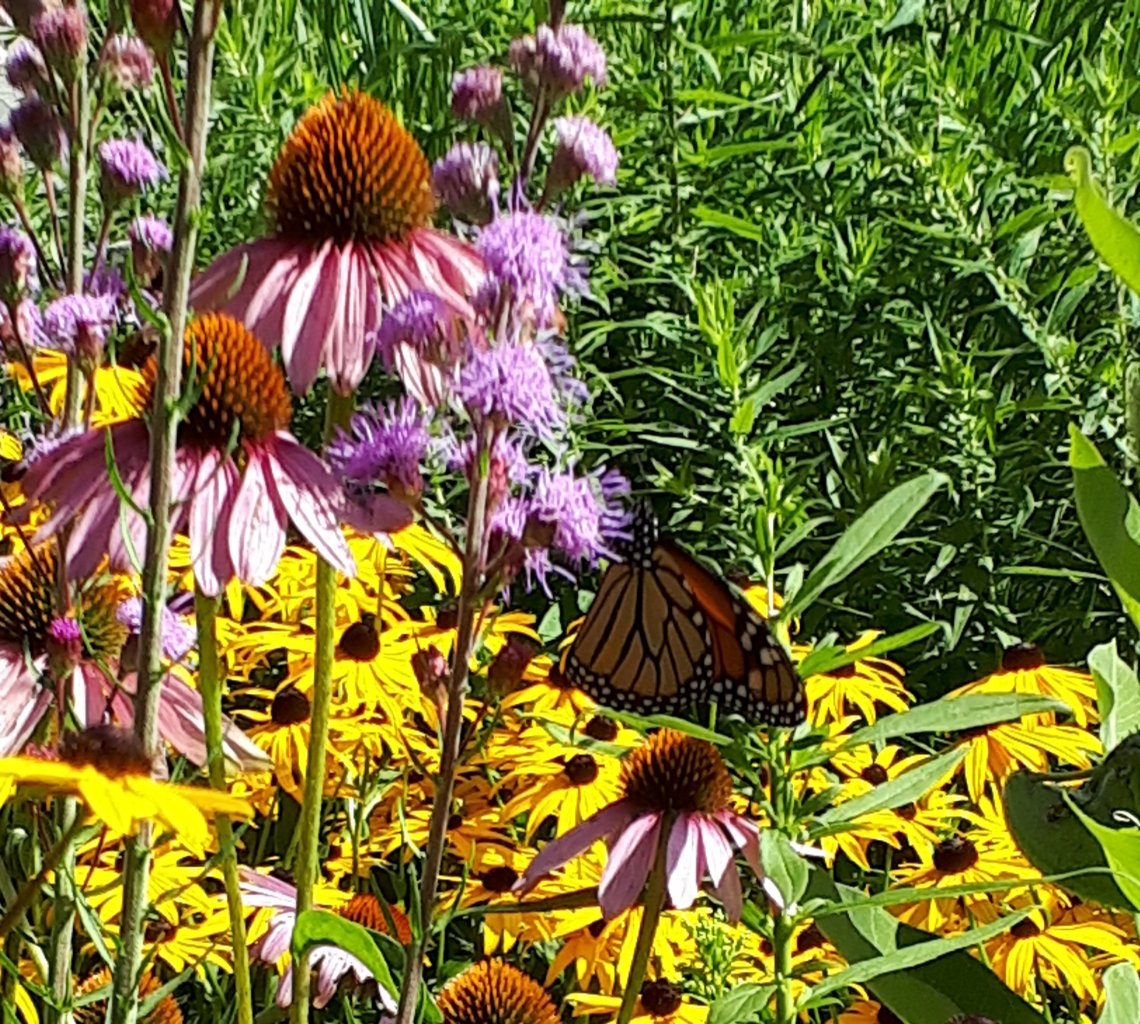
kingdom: Animalia
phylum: Arthropoda
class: Insecta
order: Lepidoptera
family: Nymphalidae
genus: Danaus
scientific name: Danaus plexippus
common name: Monarch
